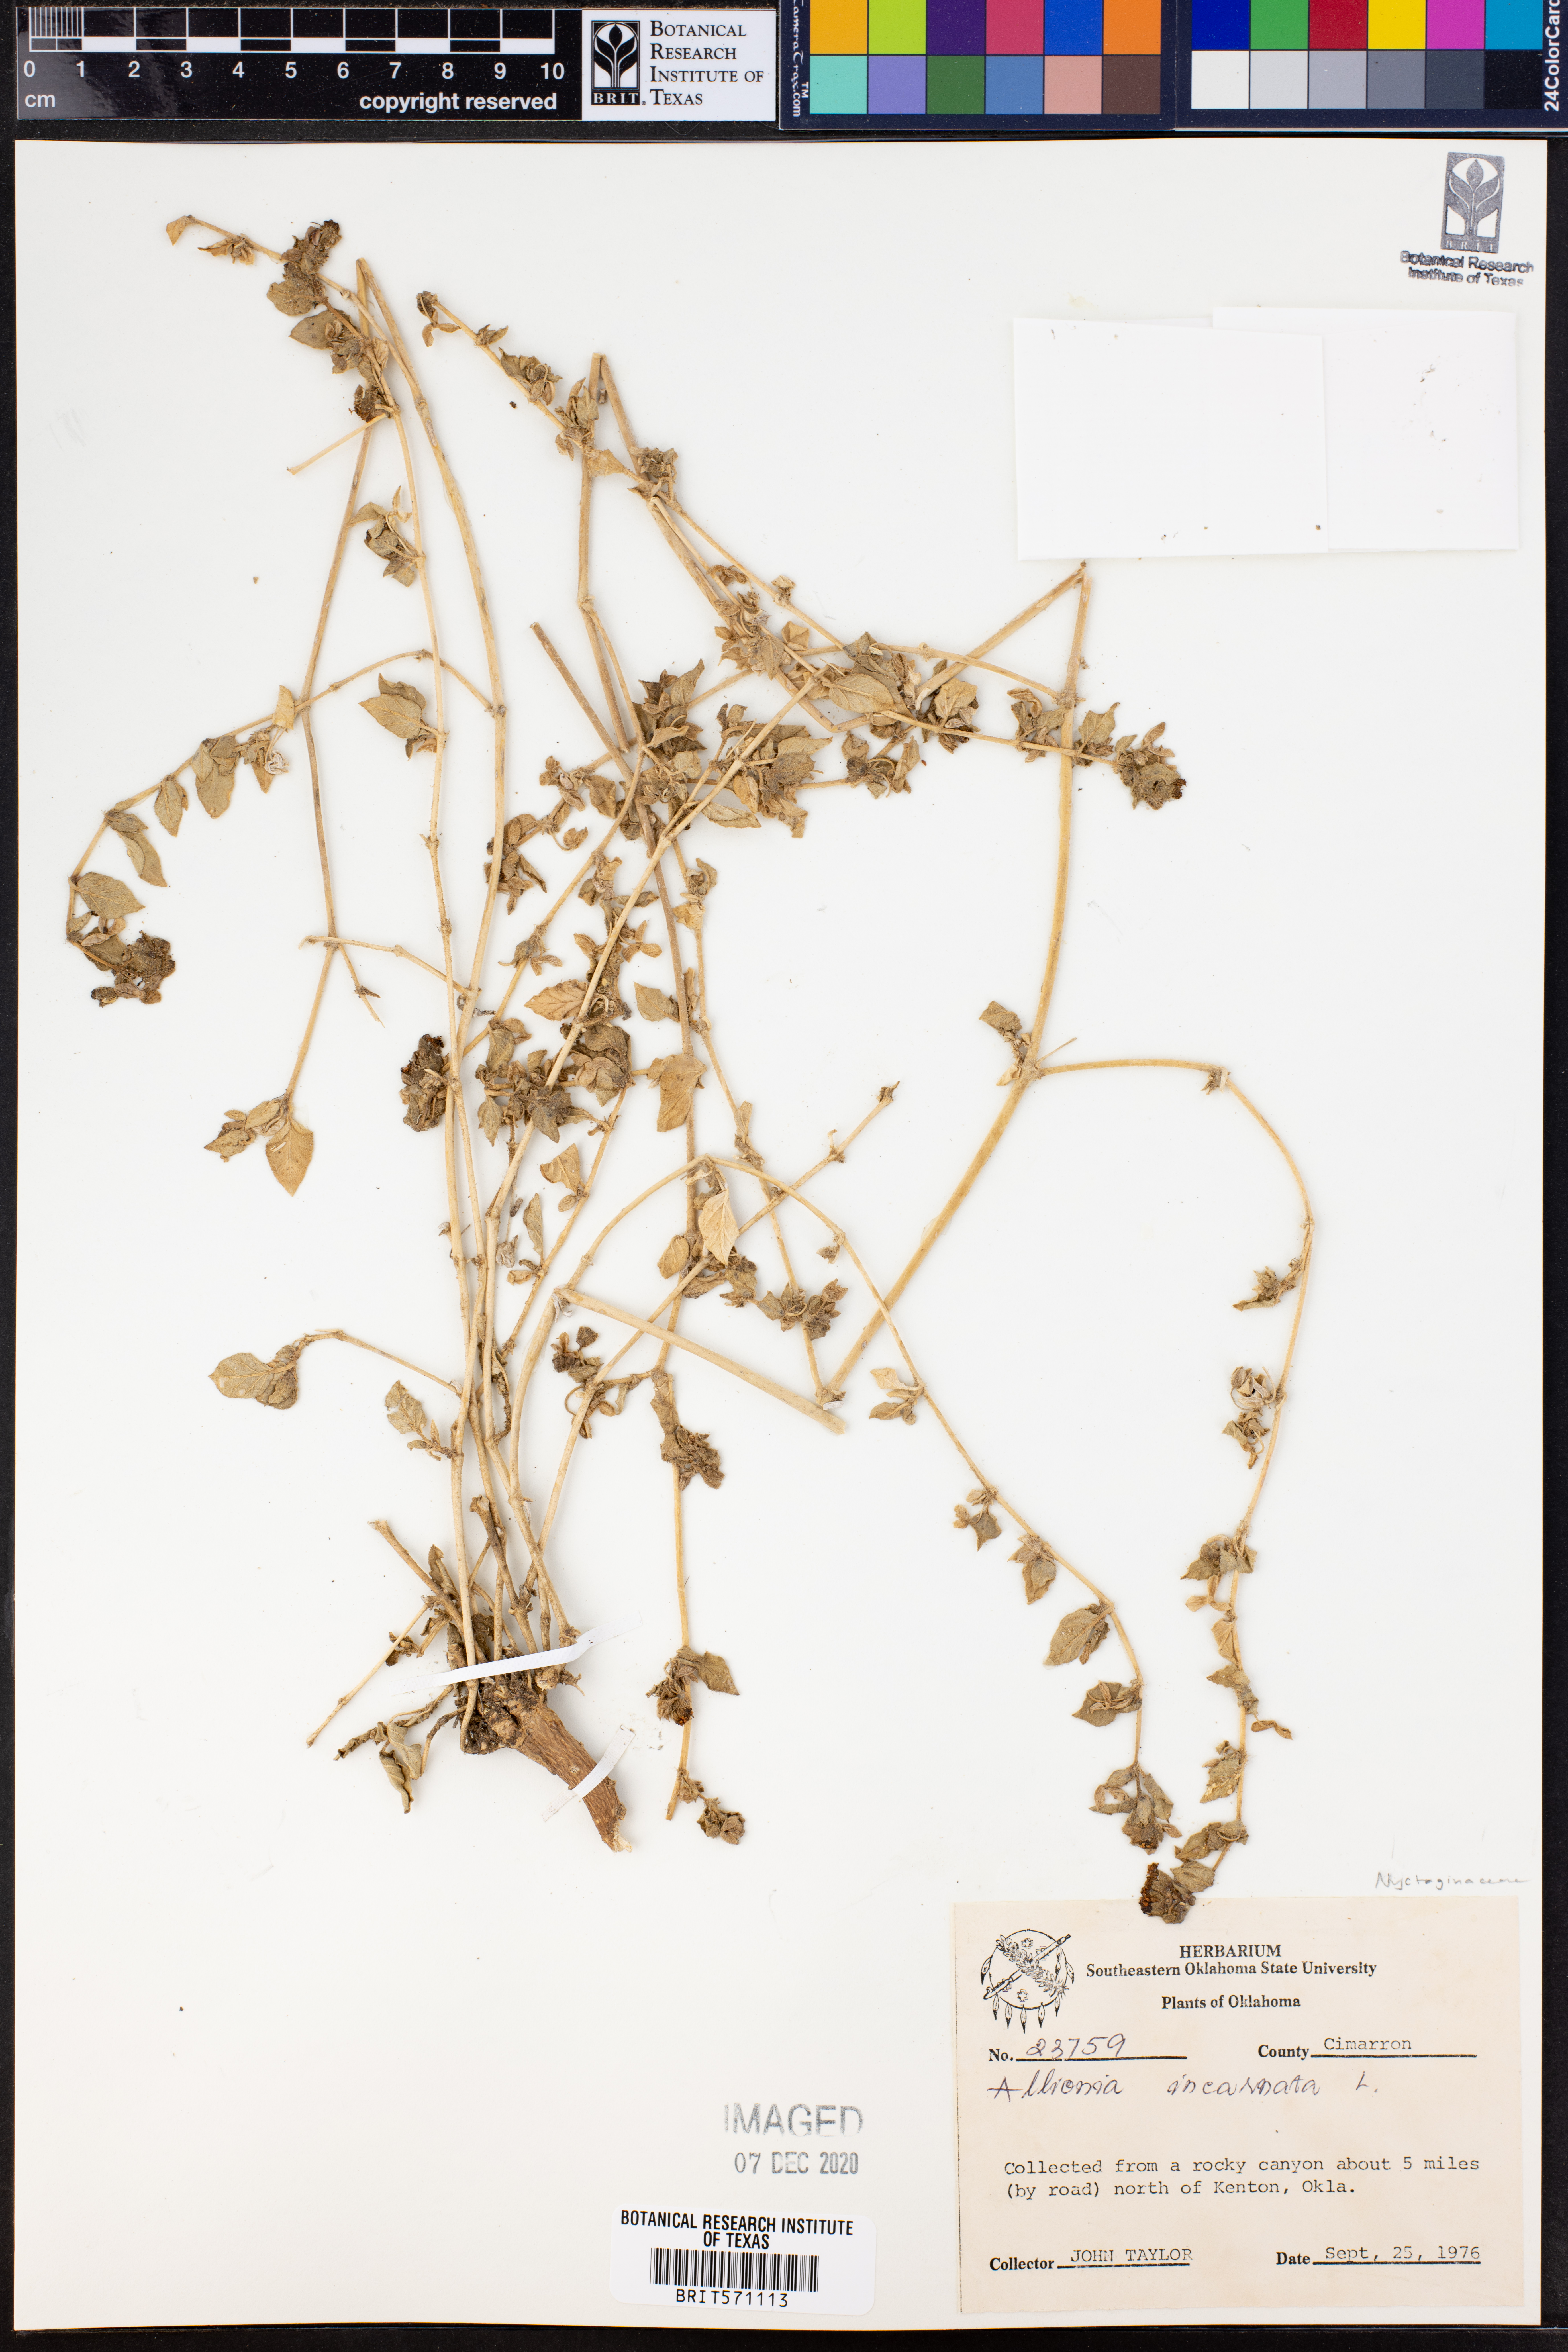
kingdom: Plantae
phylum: Tracheophyta
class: Magnoliopsida
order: Caryophyllales
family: Nyctaginaceae
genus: Allionia
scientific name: Allionia incarnata
